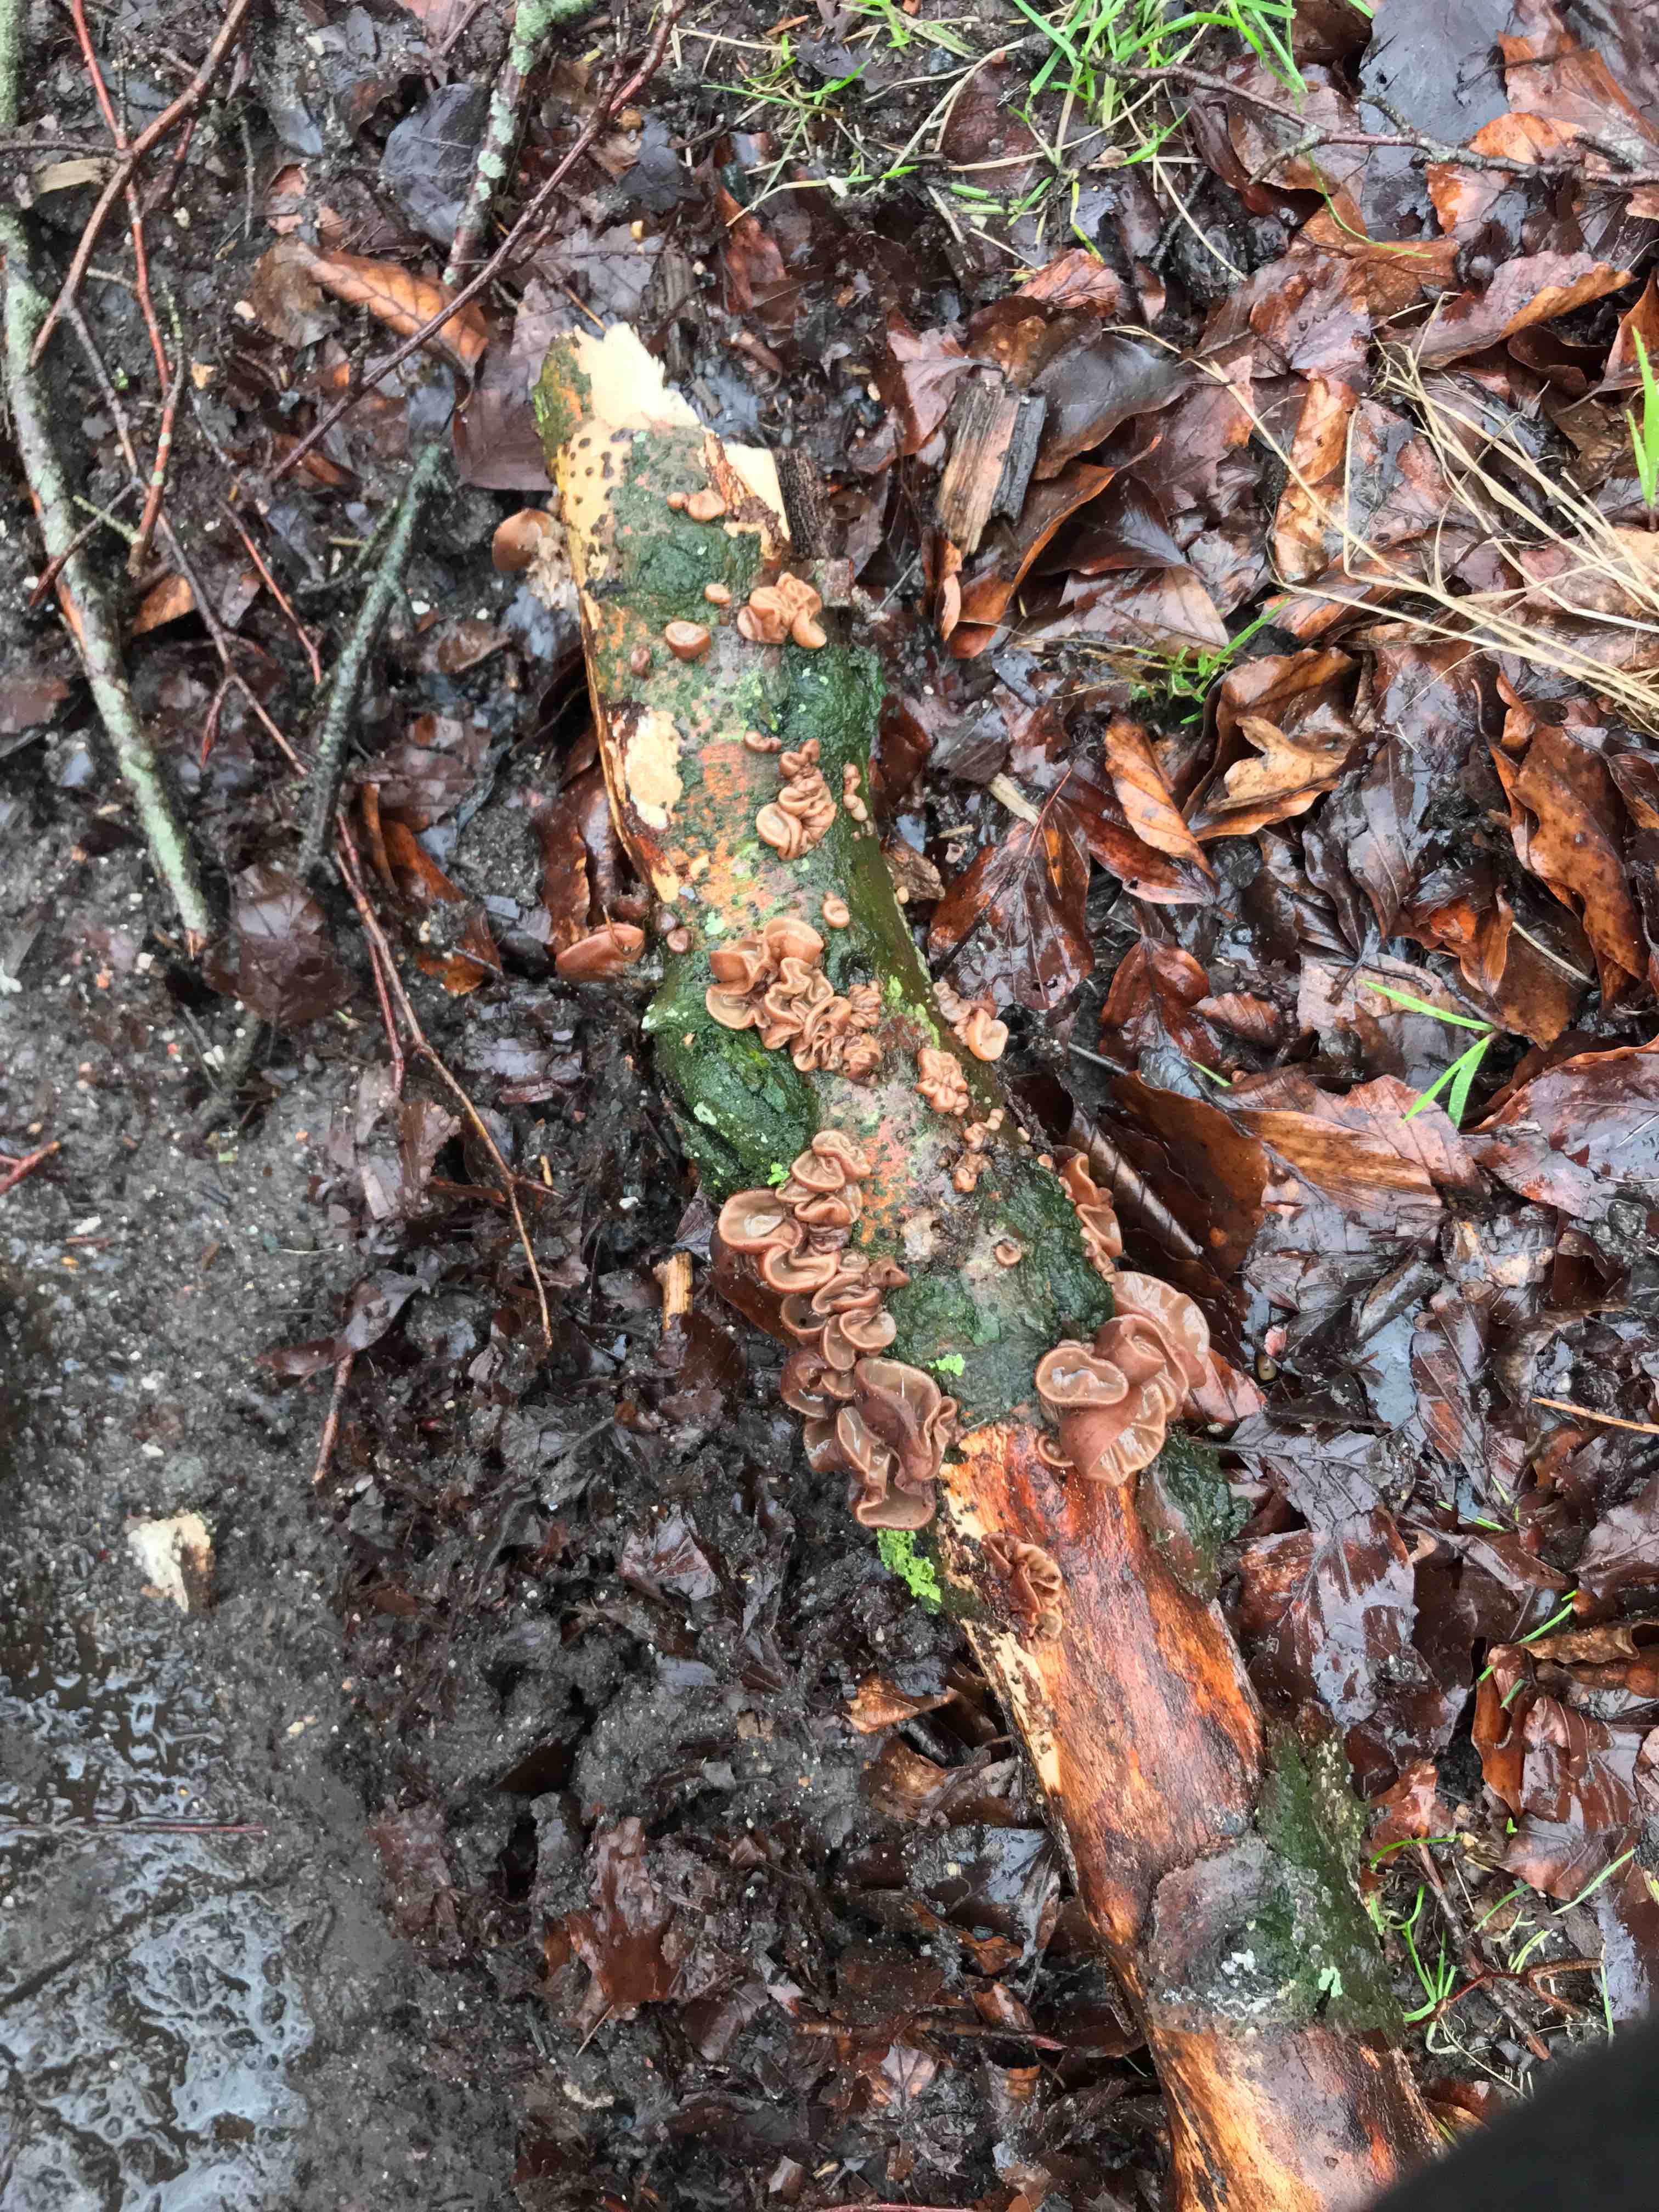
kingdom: Fungi
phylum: Basidiomycota
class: Agaricomycetes
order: Auriculariales
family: Auriculariaceae
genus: Auricularia
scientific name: Auricularia auricula-judae
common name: almindelig judasøre
